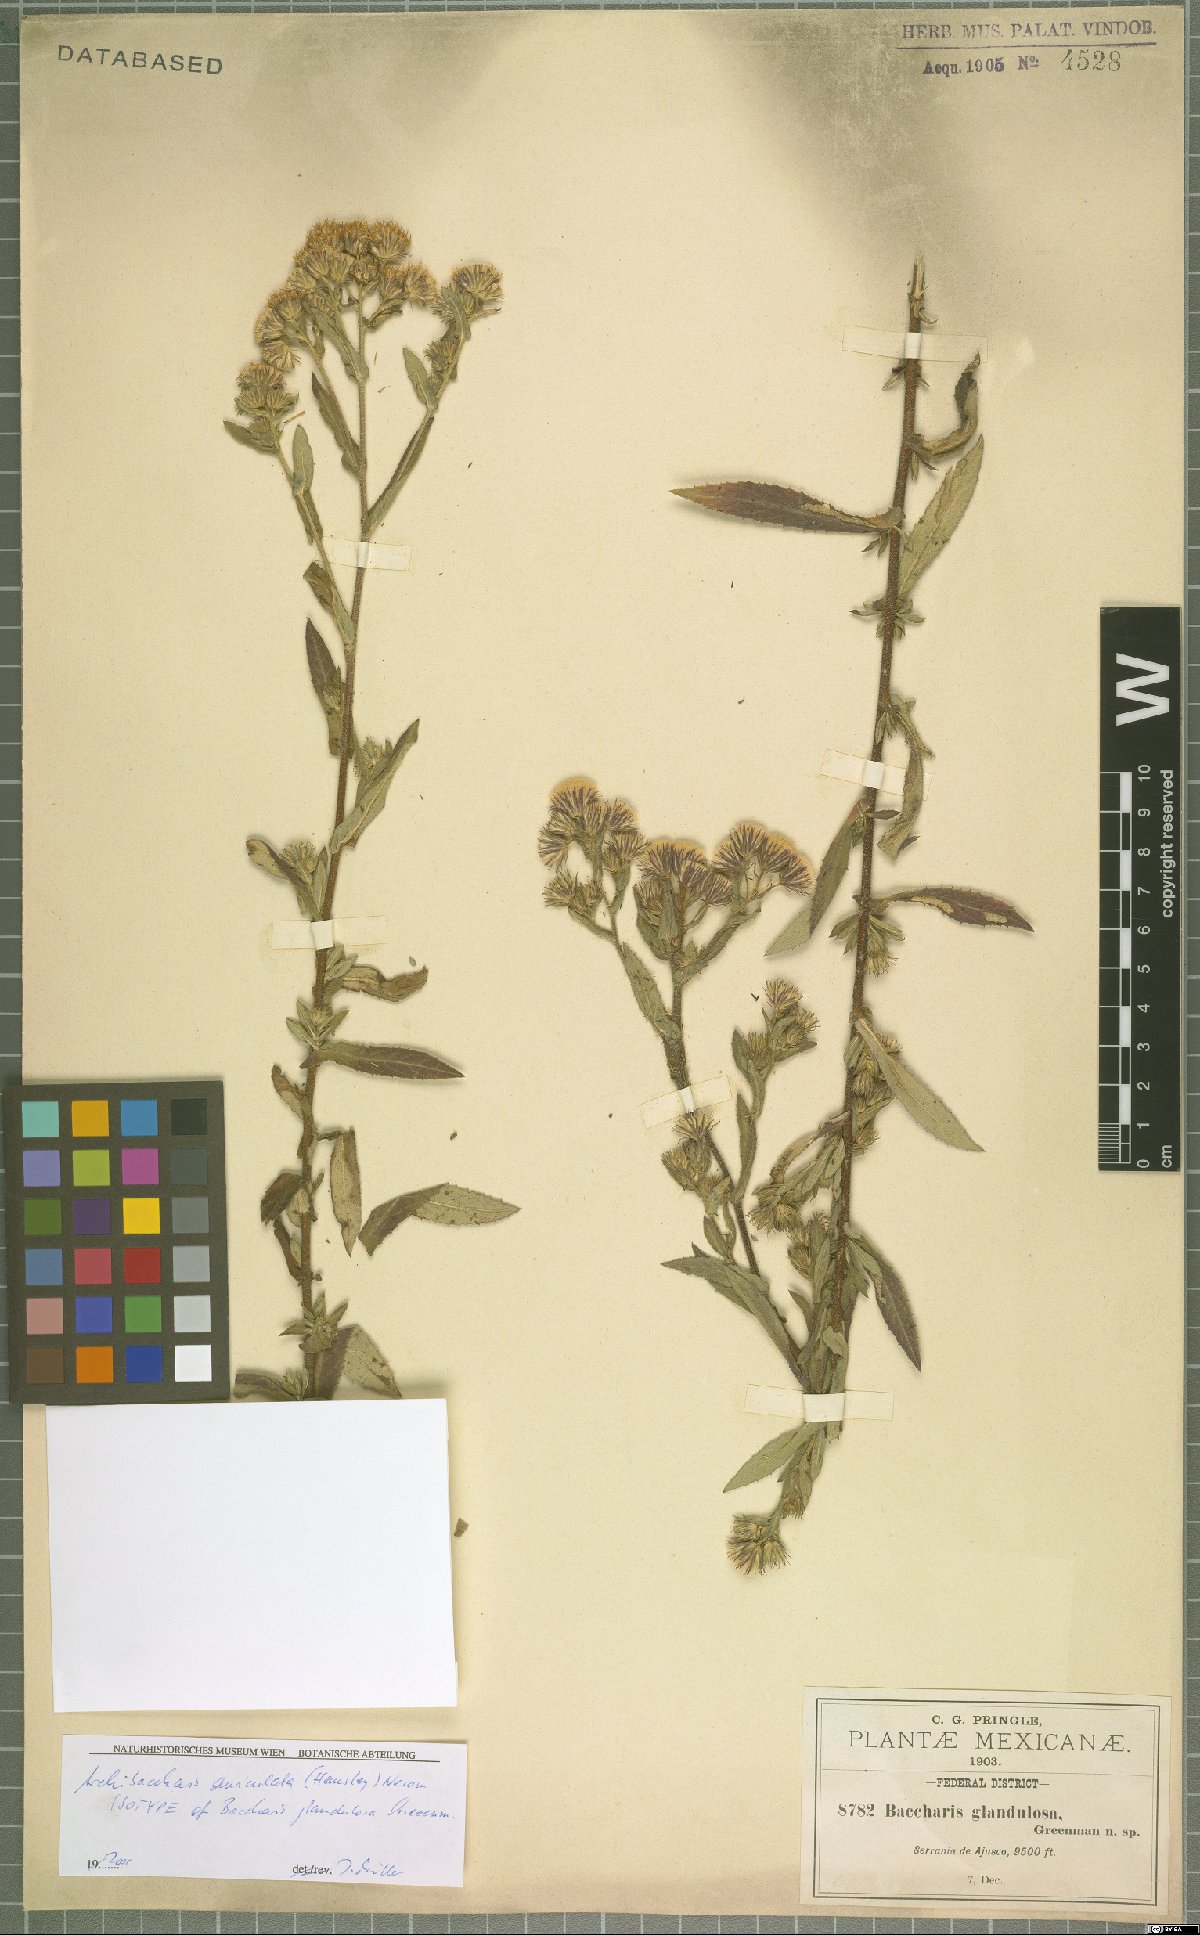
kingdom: Plantae
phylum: Tracheophyta
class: Magnoliopsida
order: Asterales
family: Asteraceae
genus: Archibaccharis
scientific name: Archibaccharis auriculata
